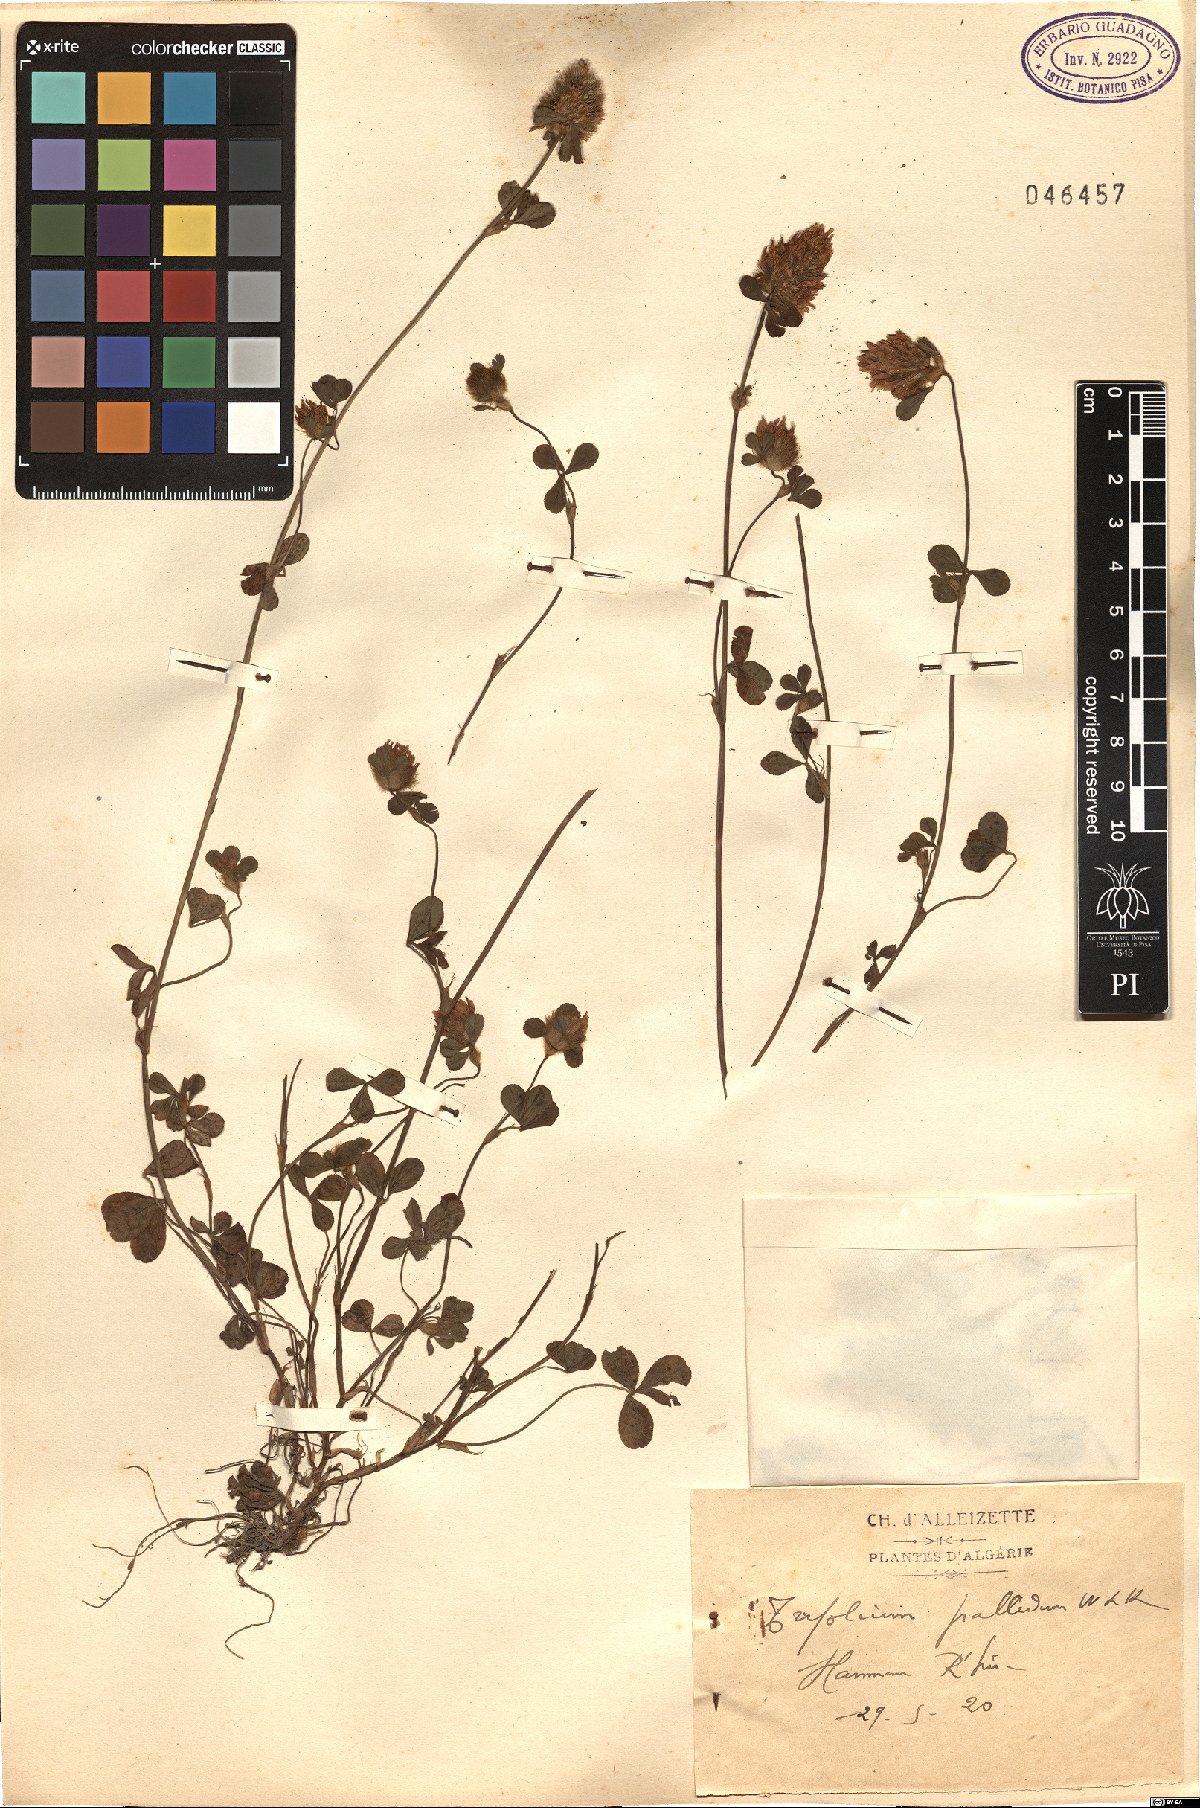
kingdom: Plantae
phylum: Tracheophyta
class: Magnoliopsida
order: Fabales
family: Fabaceae
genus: Trifolium
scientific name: Trifolium pallidum
